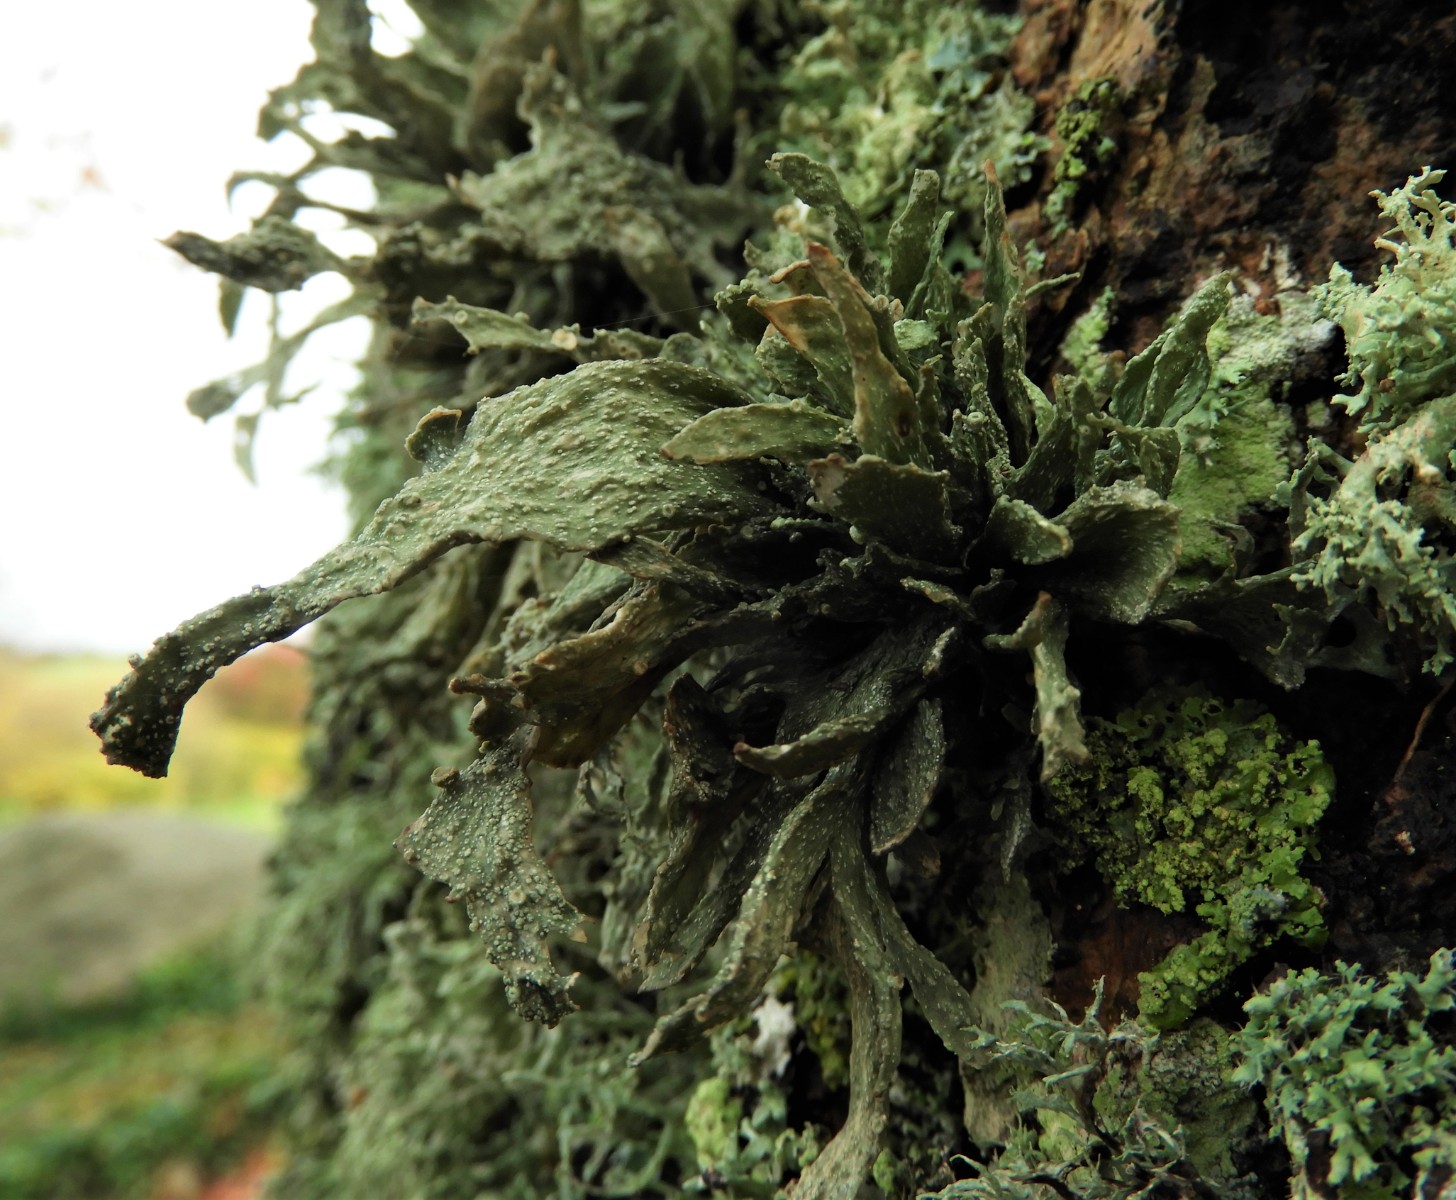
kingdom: Fungi
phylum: Ascomycota
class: Lecanoromycetes
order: Lecanorales
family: Ramalinaceae
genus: Ramalina
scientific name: Ramalina fraxinea
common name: stor grenlav
